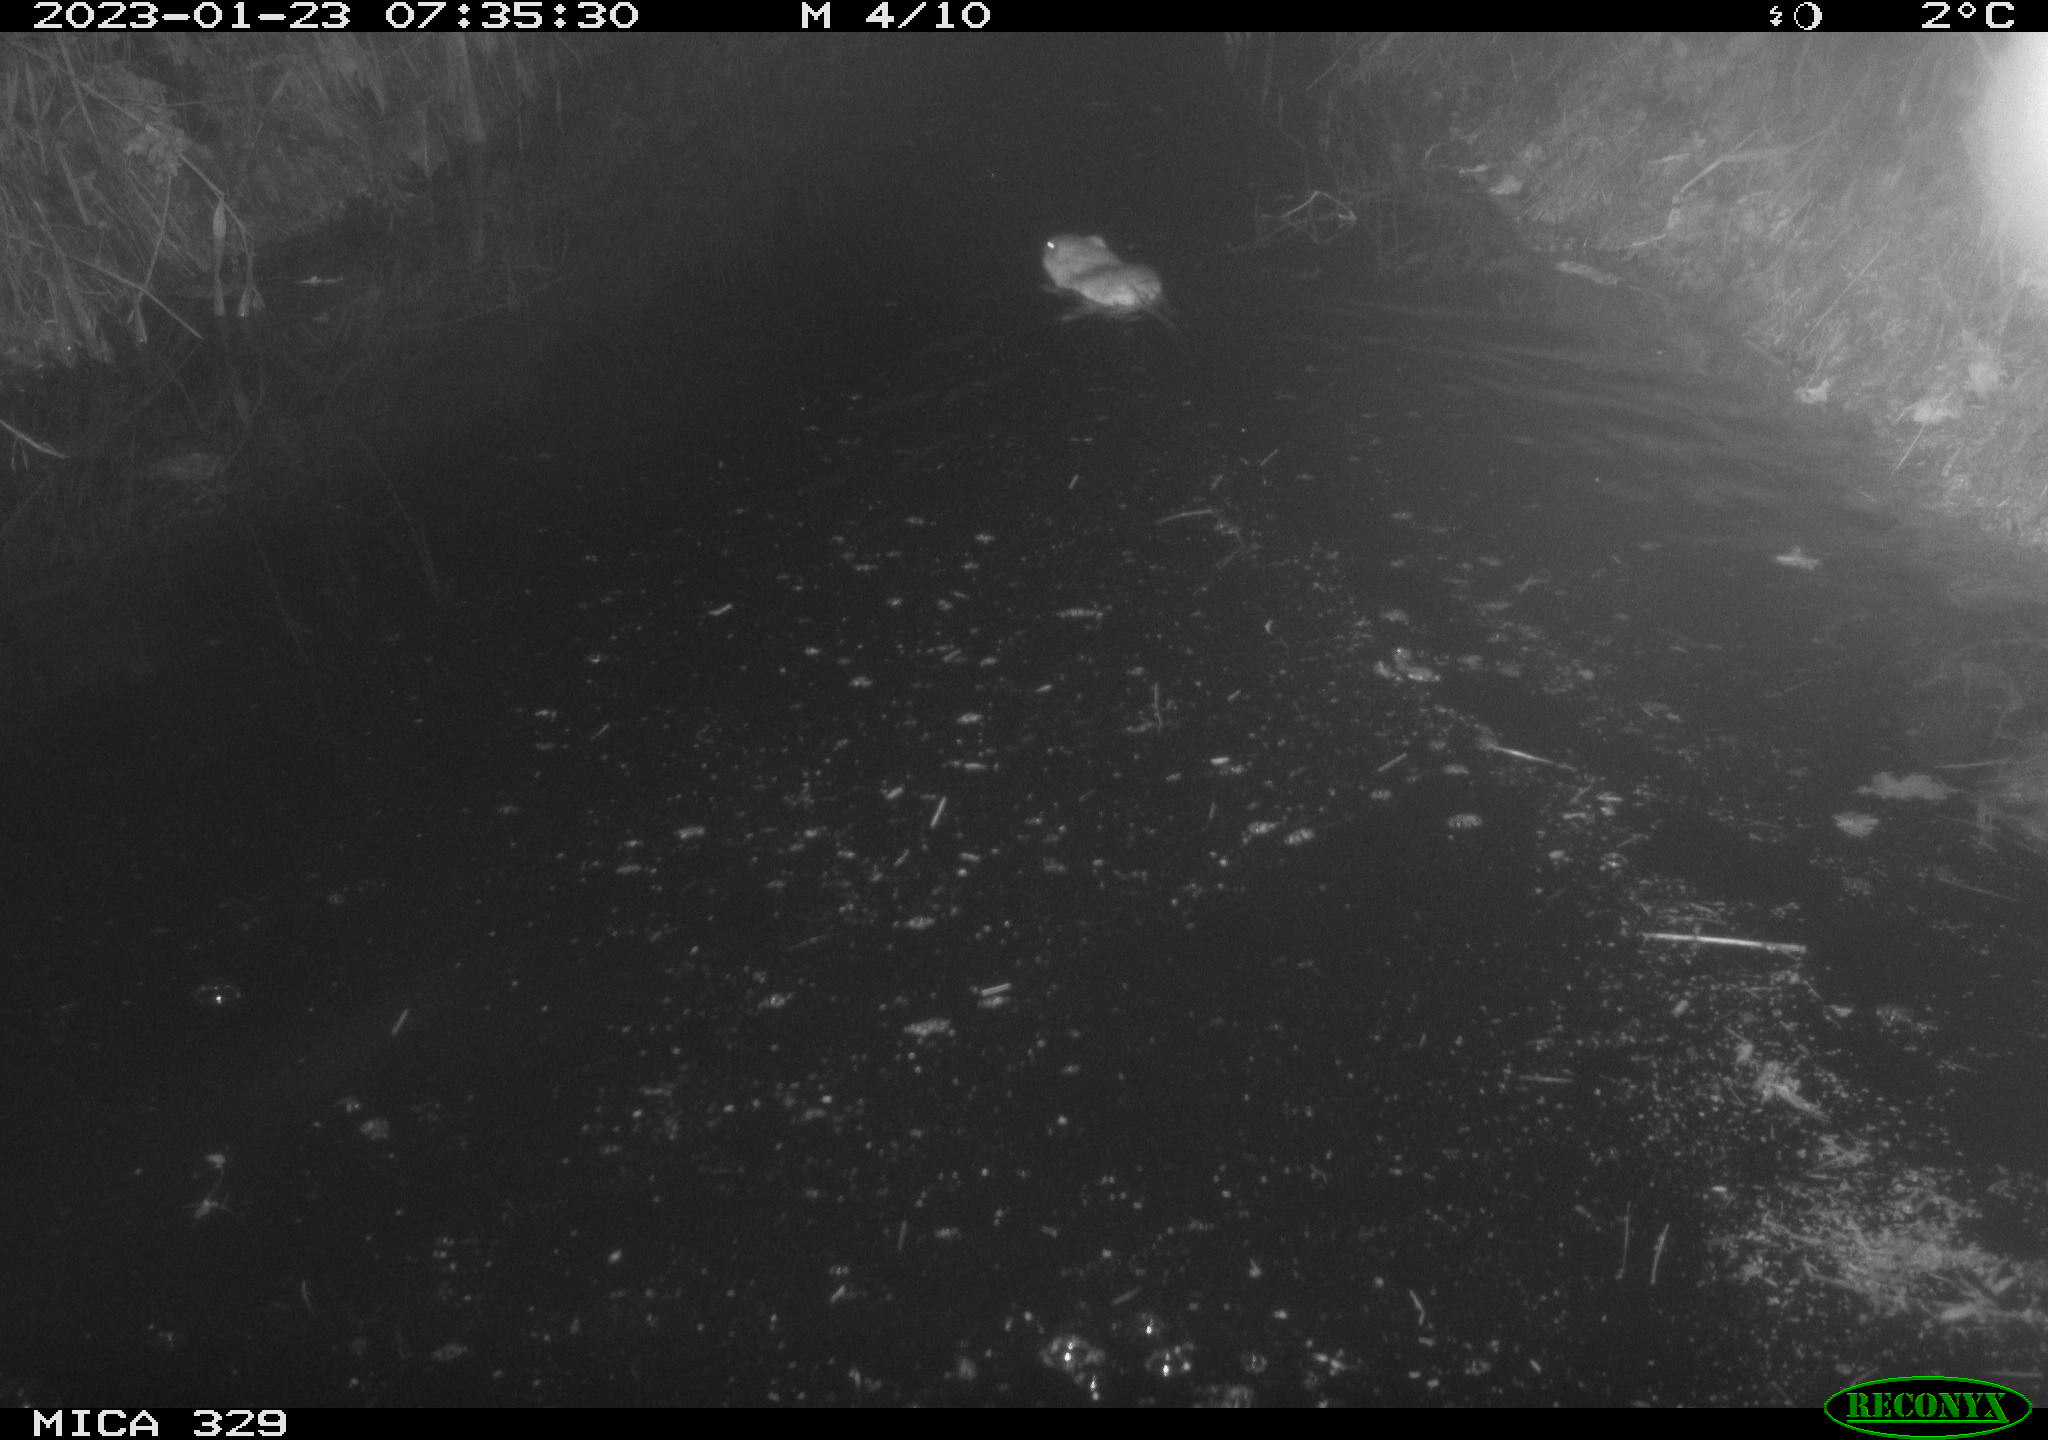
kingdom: Animalia
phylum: Chordata
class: Mammalia
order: Rodentia
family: Cricetidae
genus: Ondatra
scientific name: Ondatra zibethicus
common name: Muskrat
